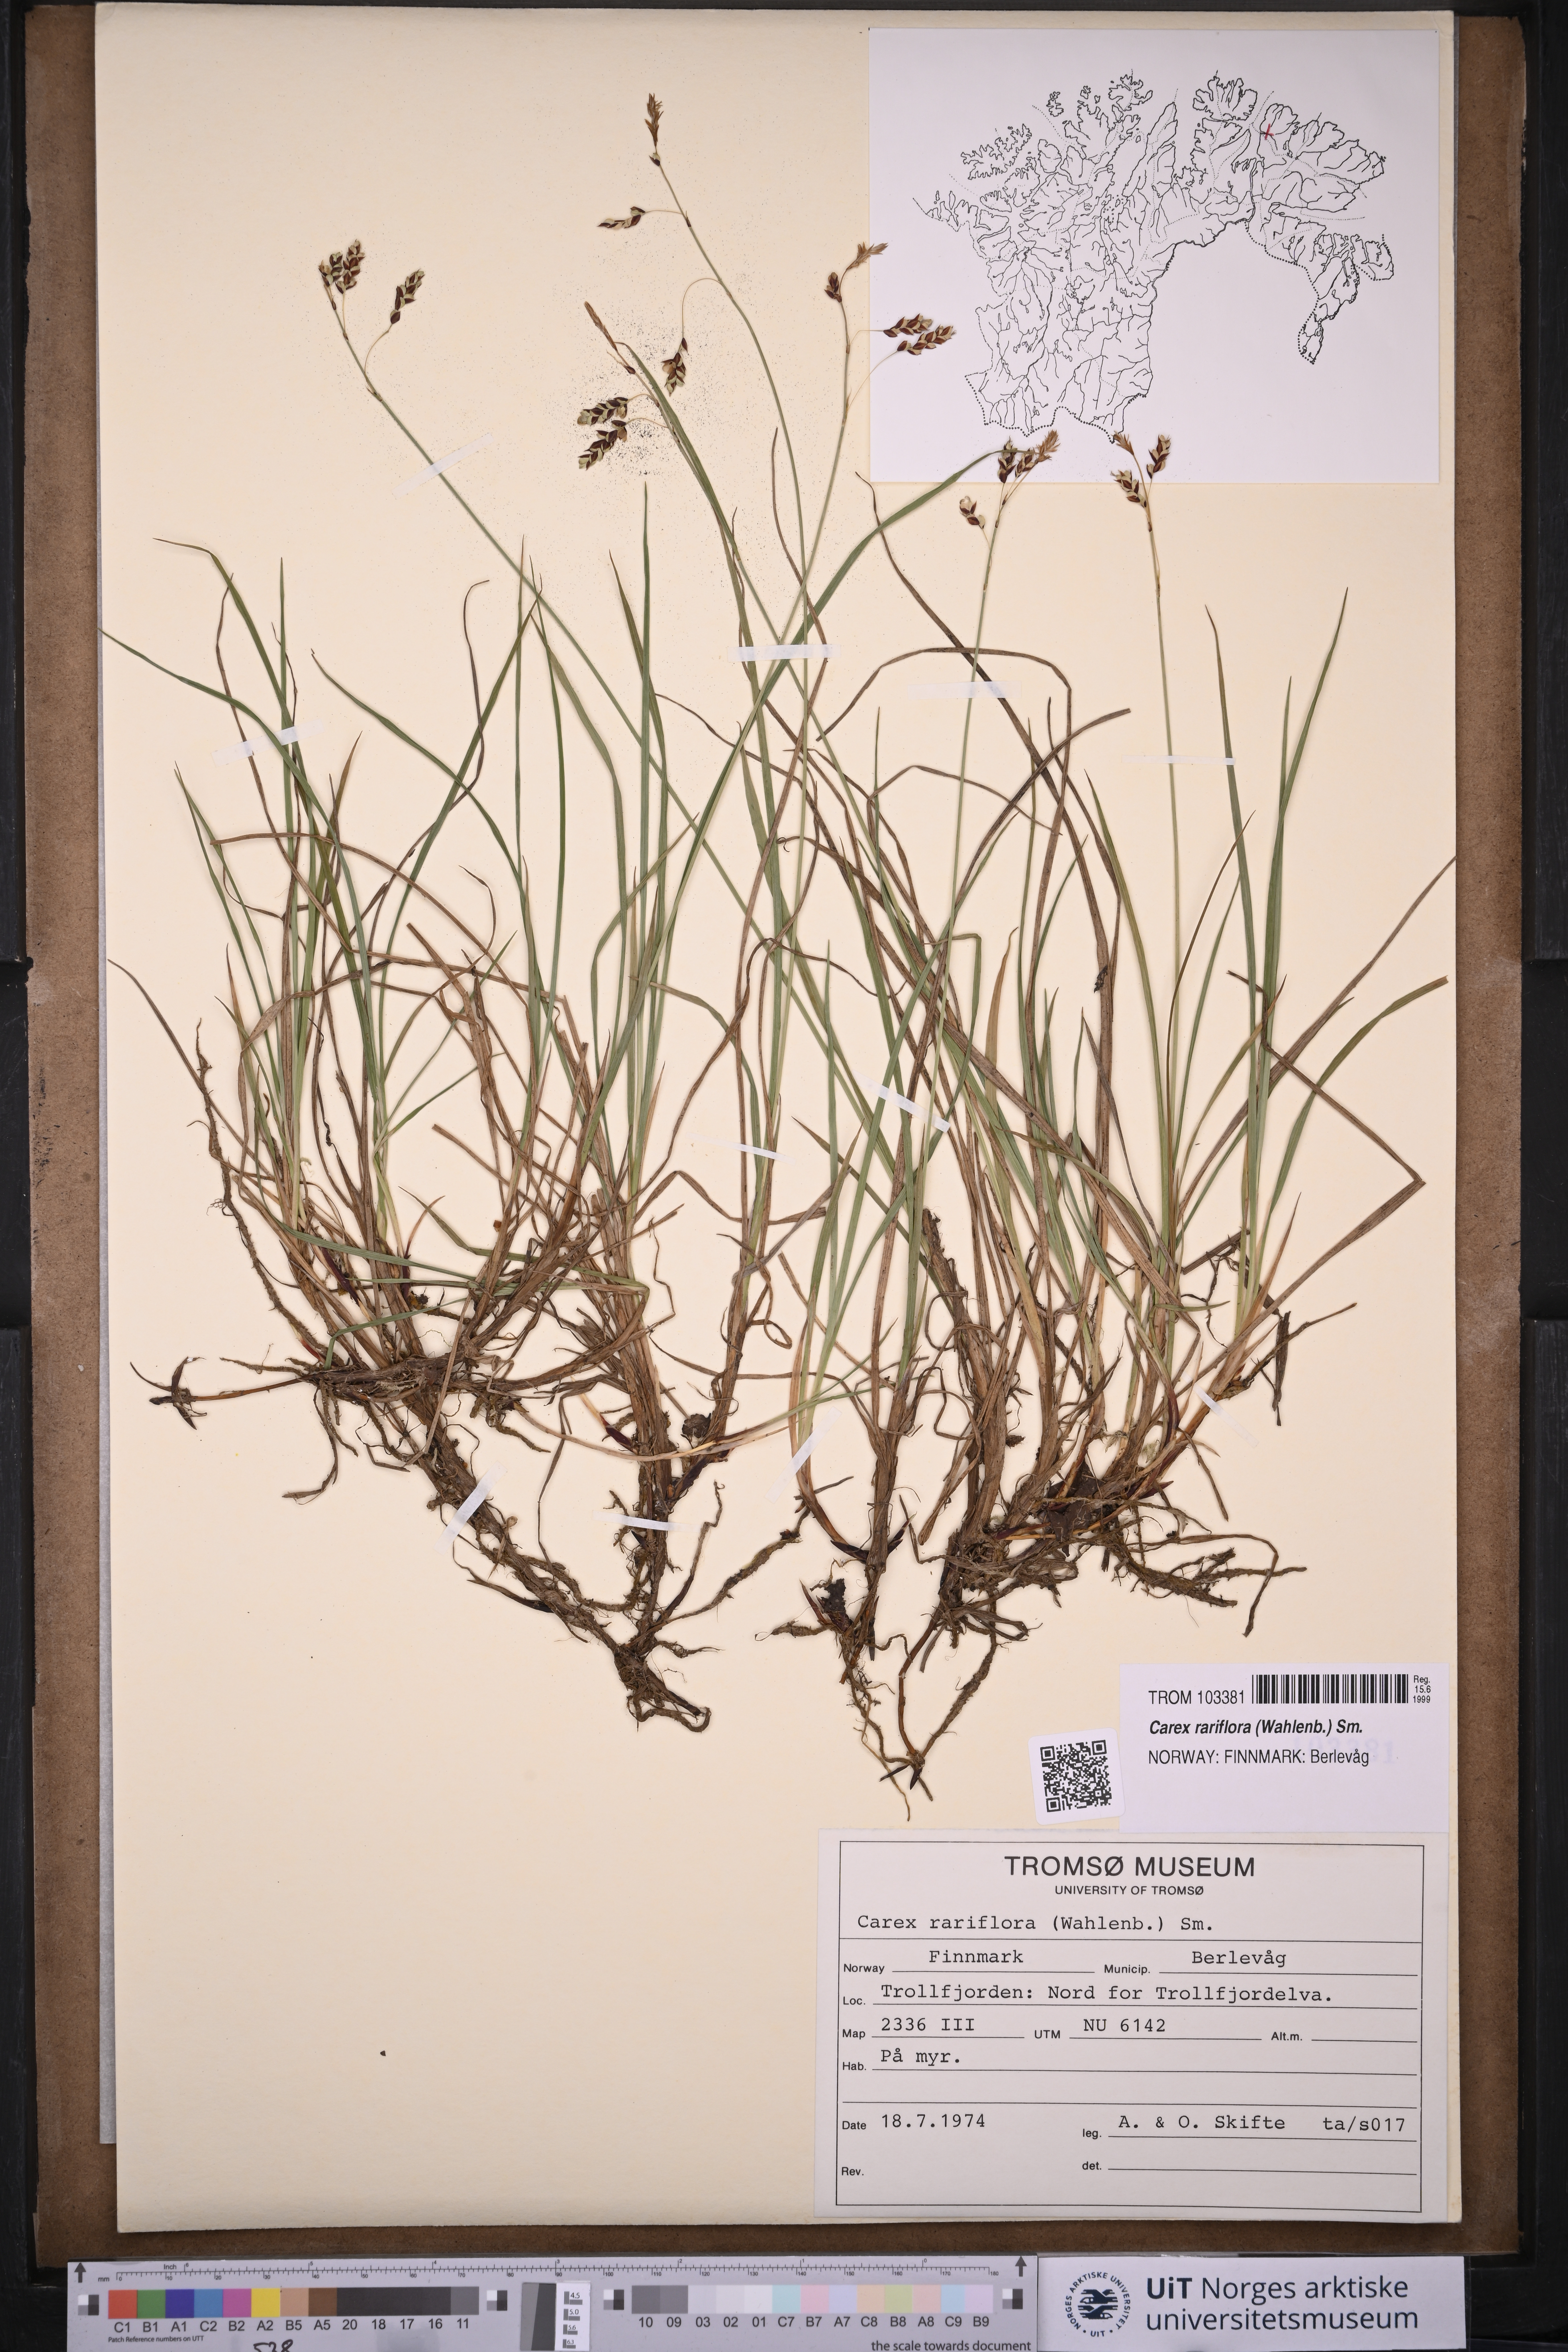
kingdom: Plantae
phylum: Tracheophyta
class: Liliopsida
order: Poales
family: Cyperaceae
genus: Carex
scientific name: Carex rariflora
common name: Loose-flowered alpine sedge
